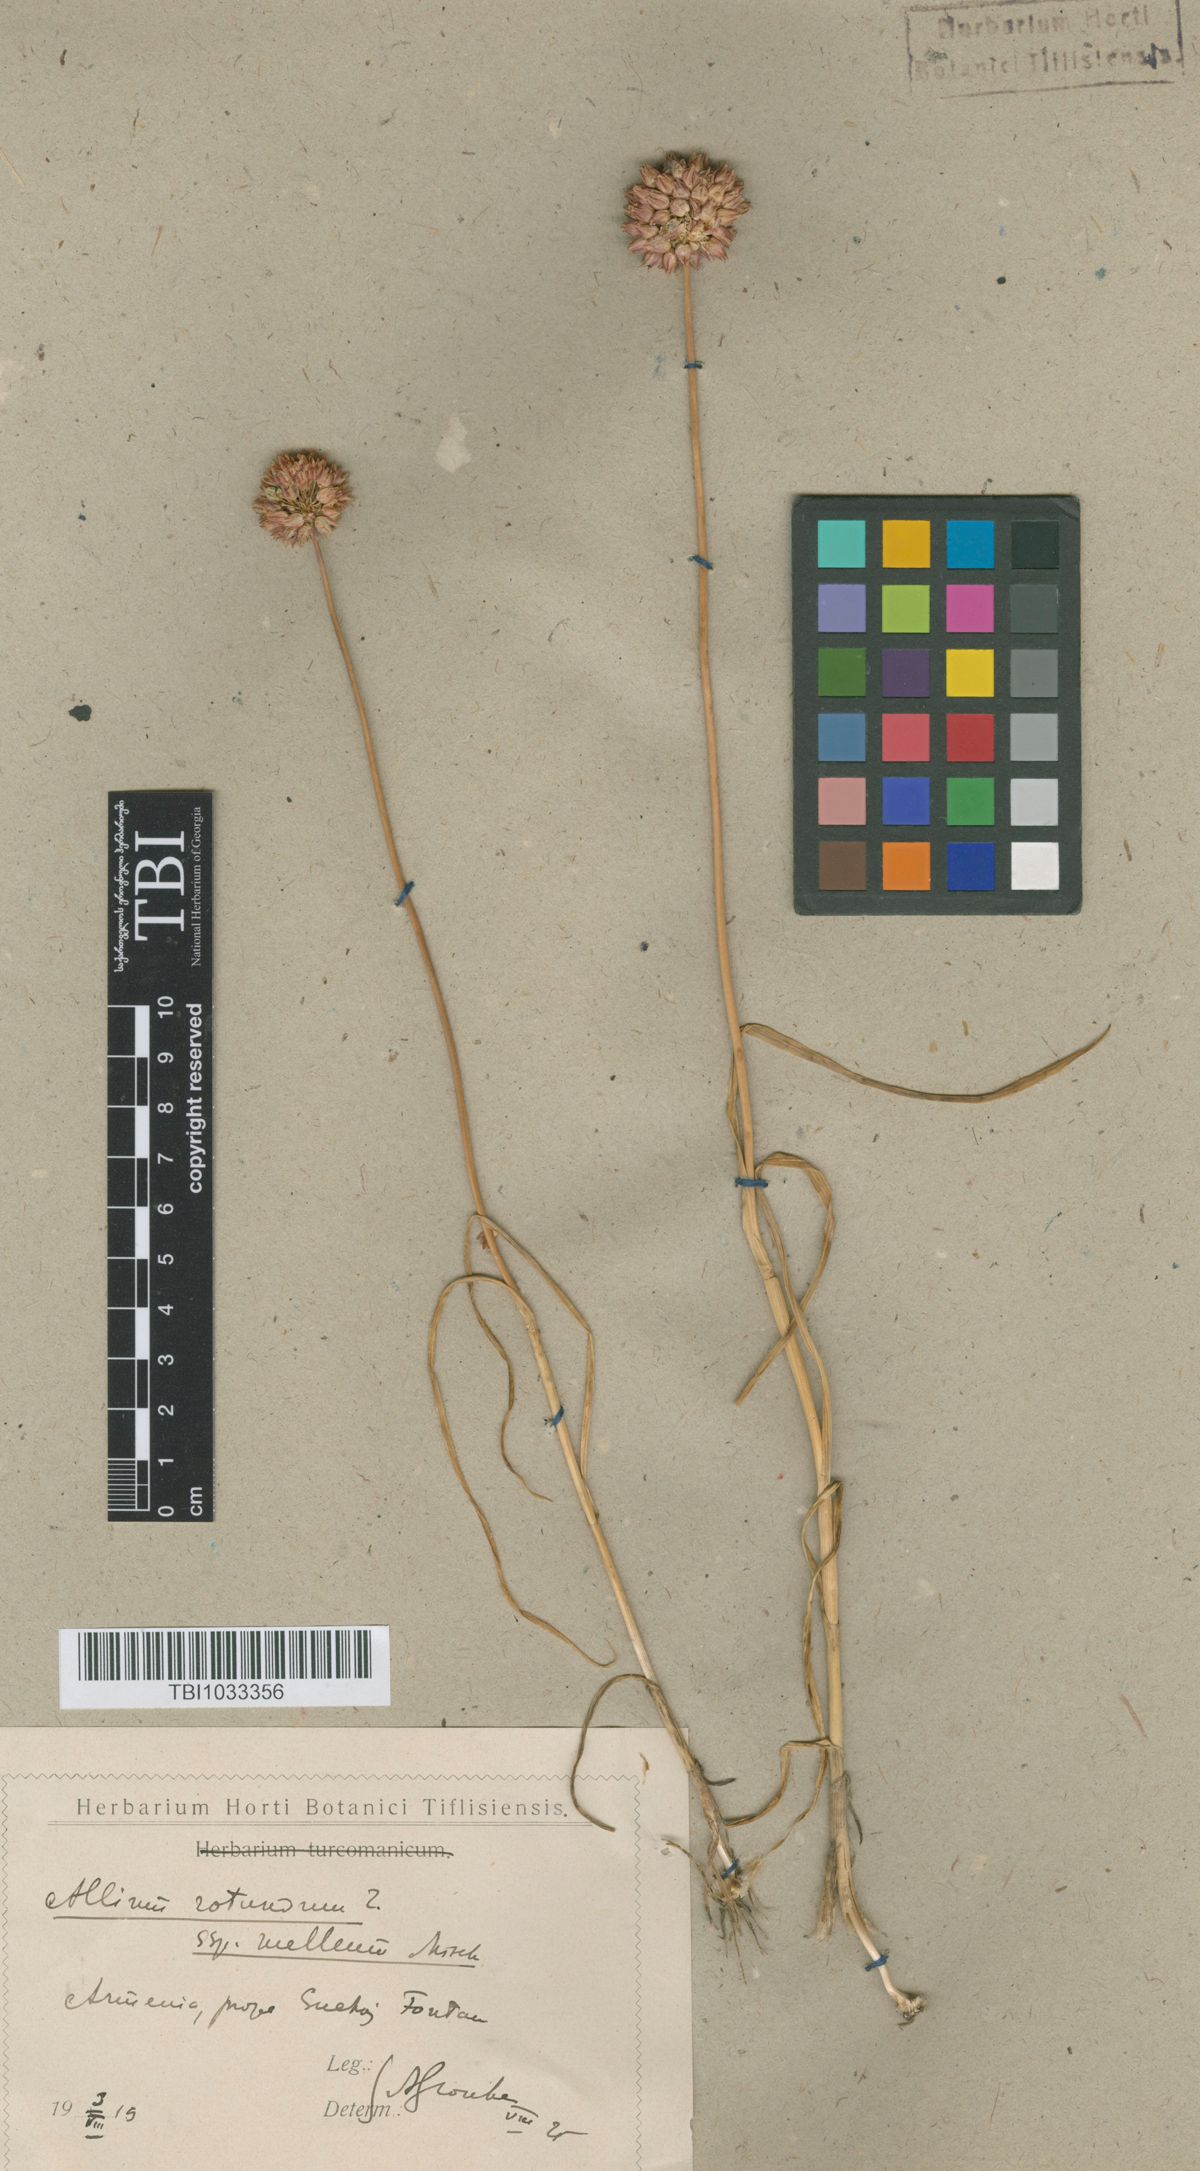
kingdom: Plantae
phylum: Tracheophyta
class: Liliopsida
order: Asparagales
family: Amaryllidaceae
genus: Allium
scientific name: Allium rotundum
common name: Sand leek
